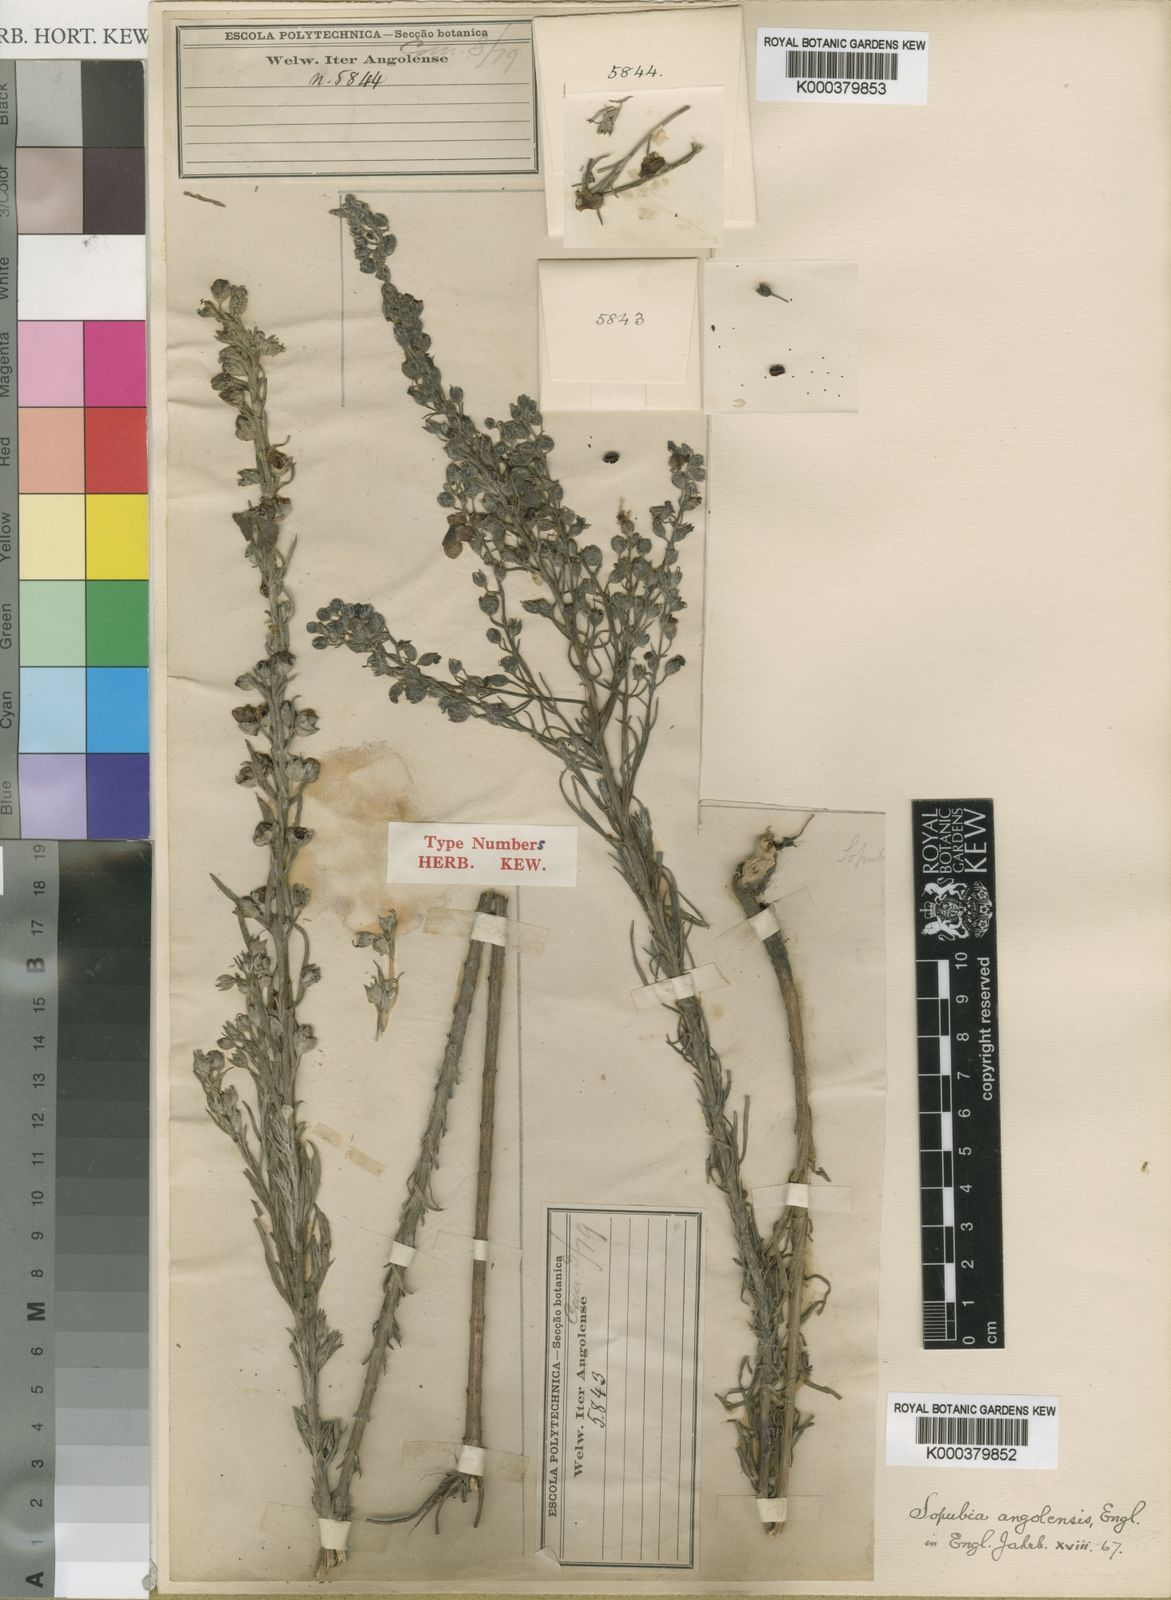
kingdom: Plantae
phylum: Tracheophyta
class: Magnoliopsida
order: Lamiales
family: Orobanchaceae
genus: Sopubia
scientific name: Sopubia cana
